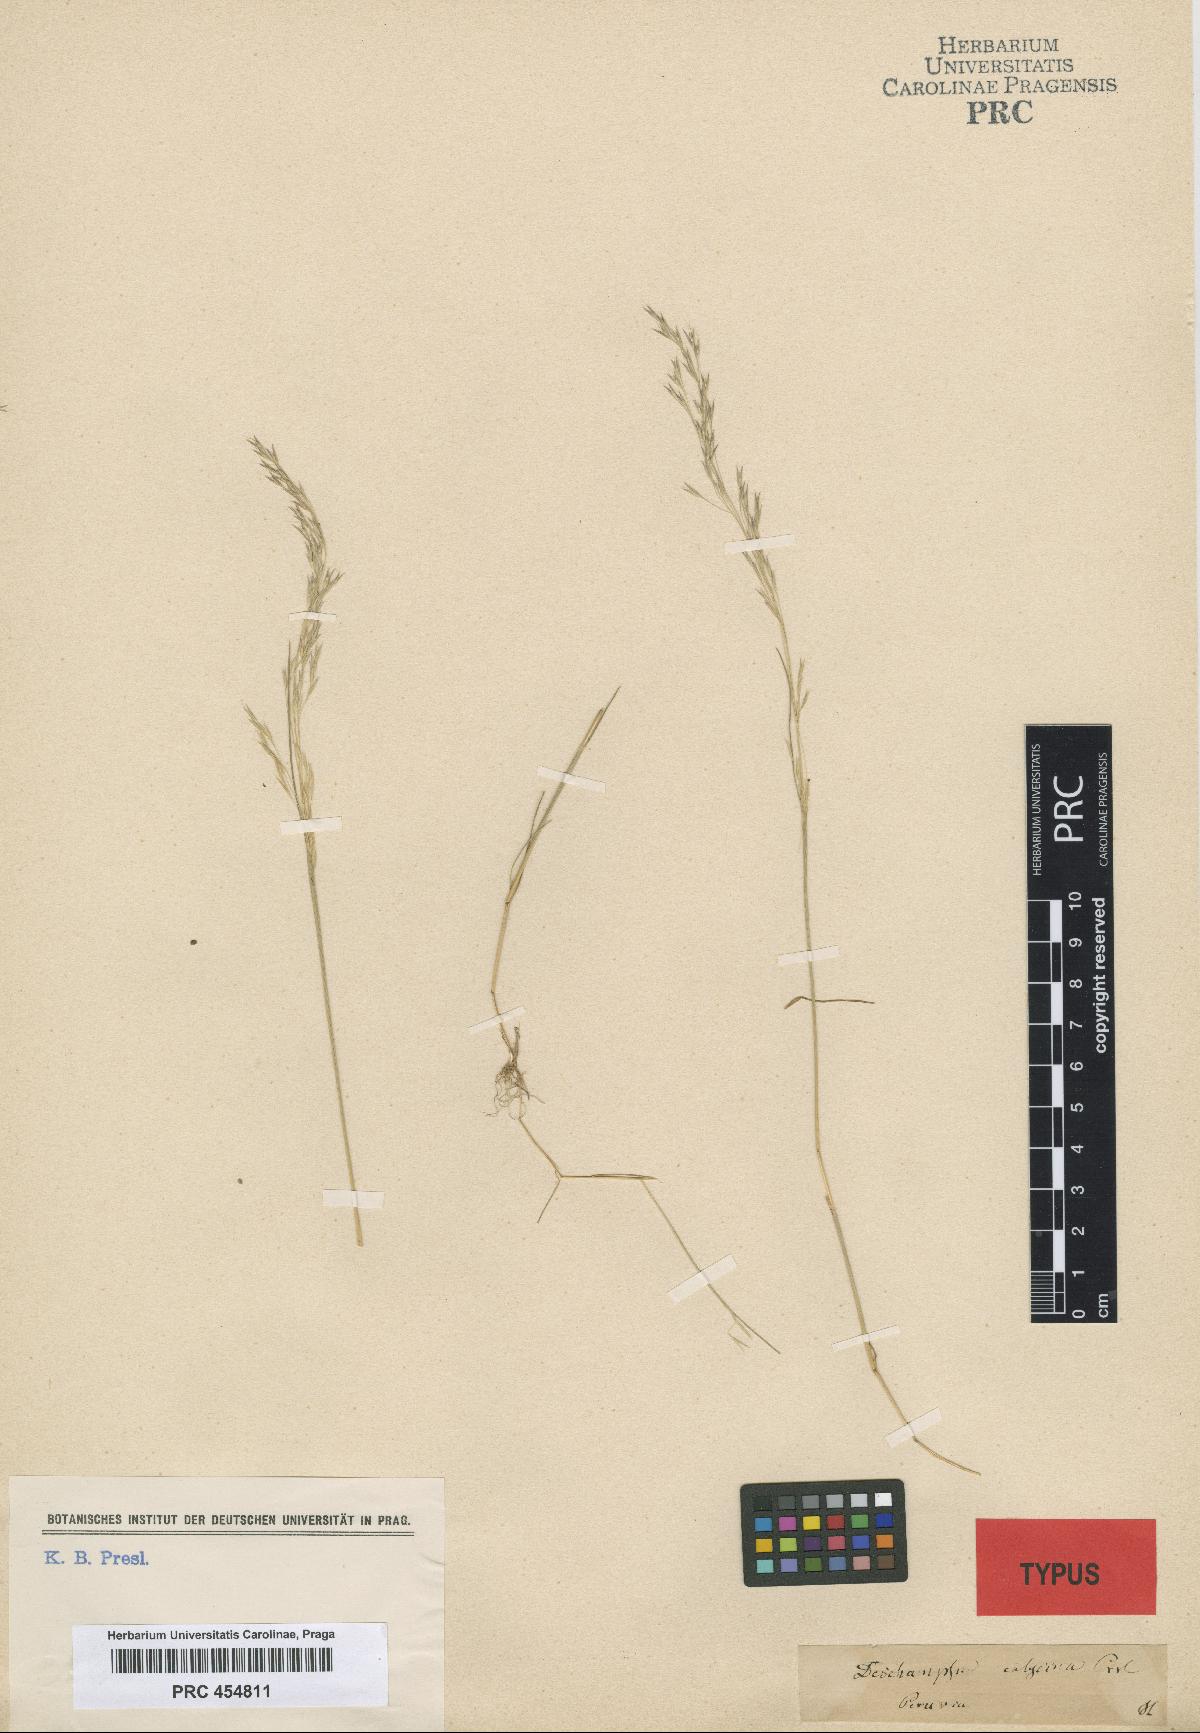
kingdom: Plantae
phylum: Tracheophyta
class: Liliopsida
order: Poales
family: Poaceae
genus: Deschampsia
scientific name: Deschampsia danthonioides
